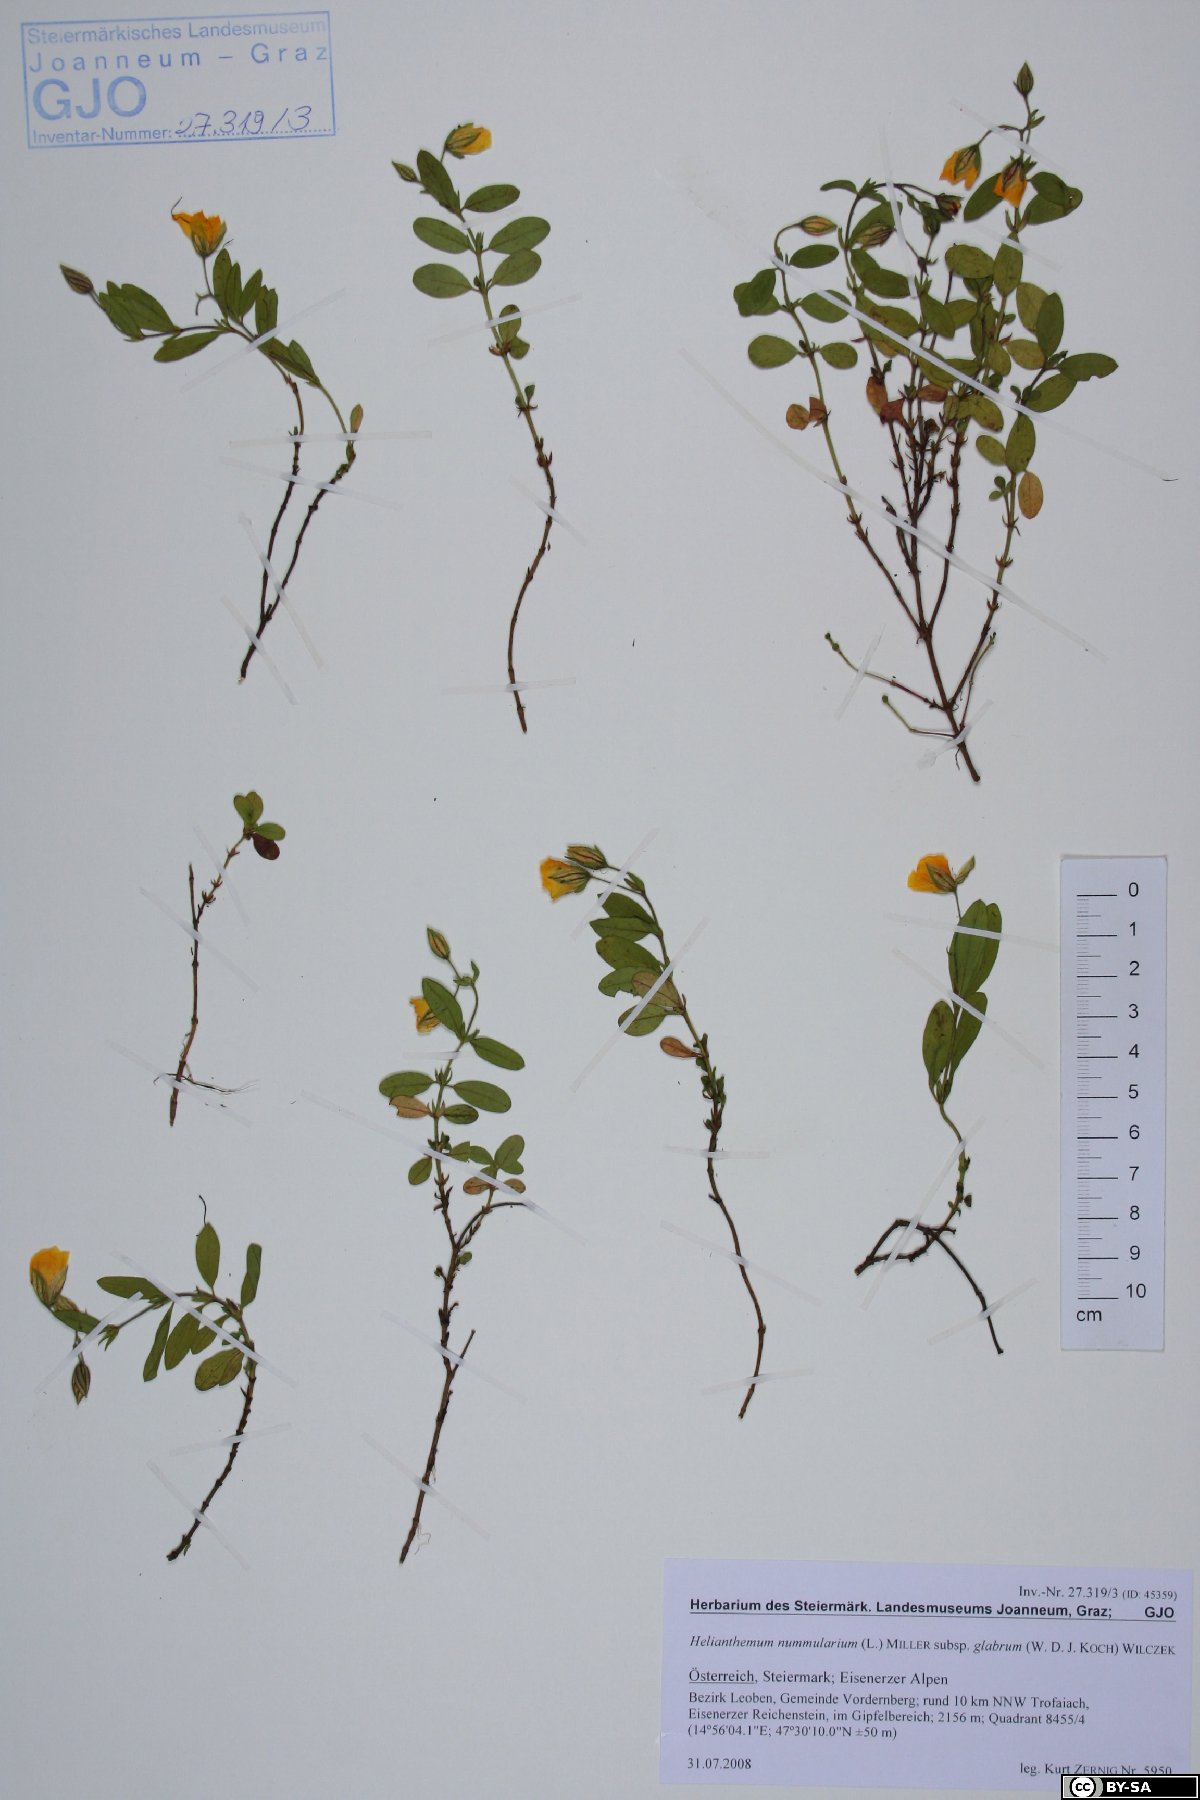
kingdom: Plantae
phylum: Tracheophyta
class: Magnoliopsida
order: Malvales
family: Cistaceae
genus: Helianthemum
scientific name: Helianthemum nummularium
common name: Common rock-rose
